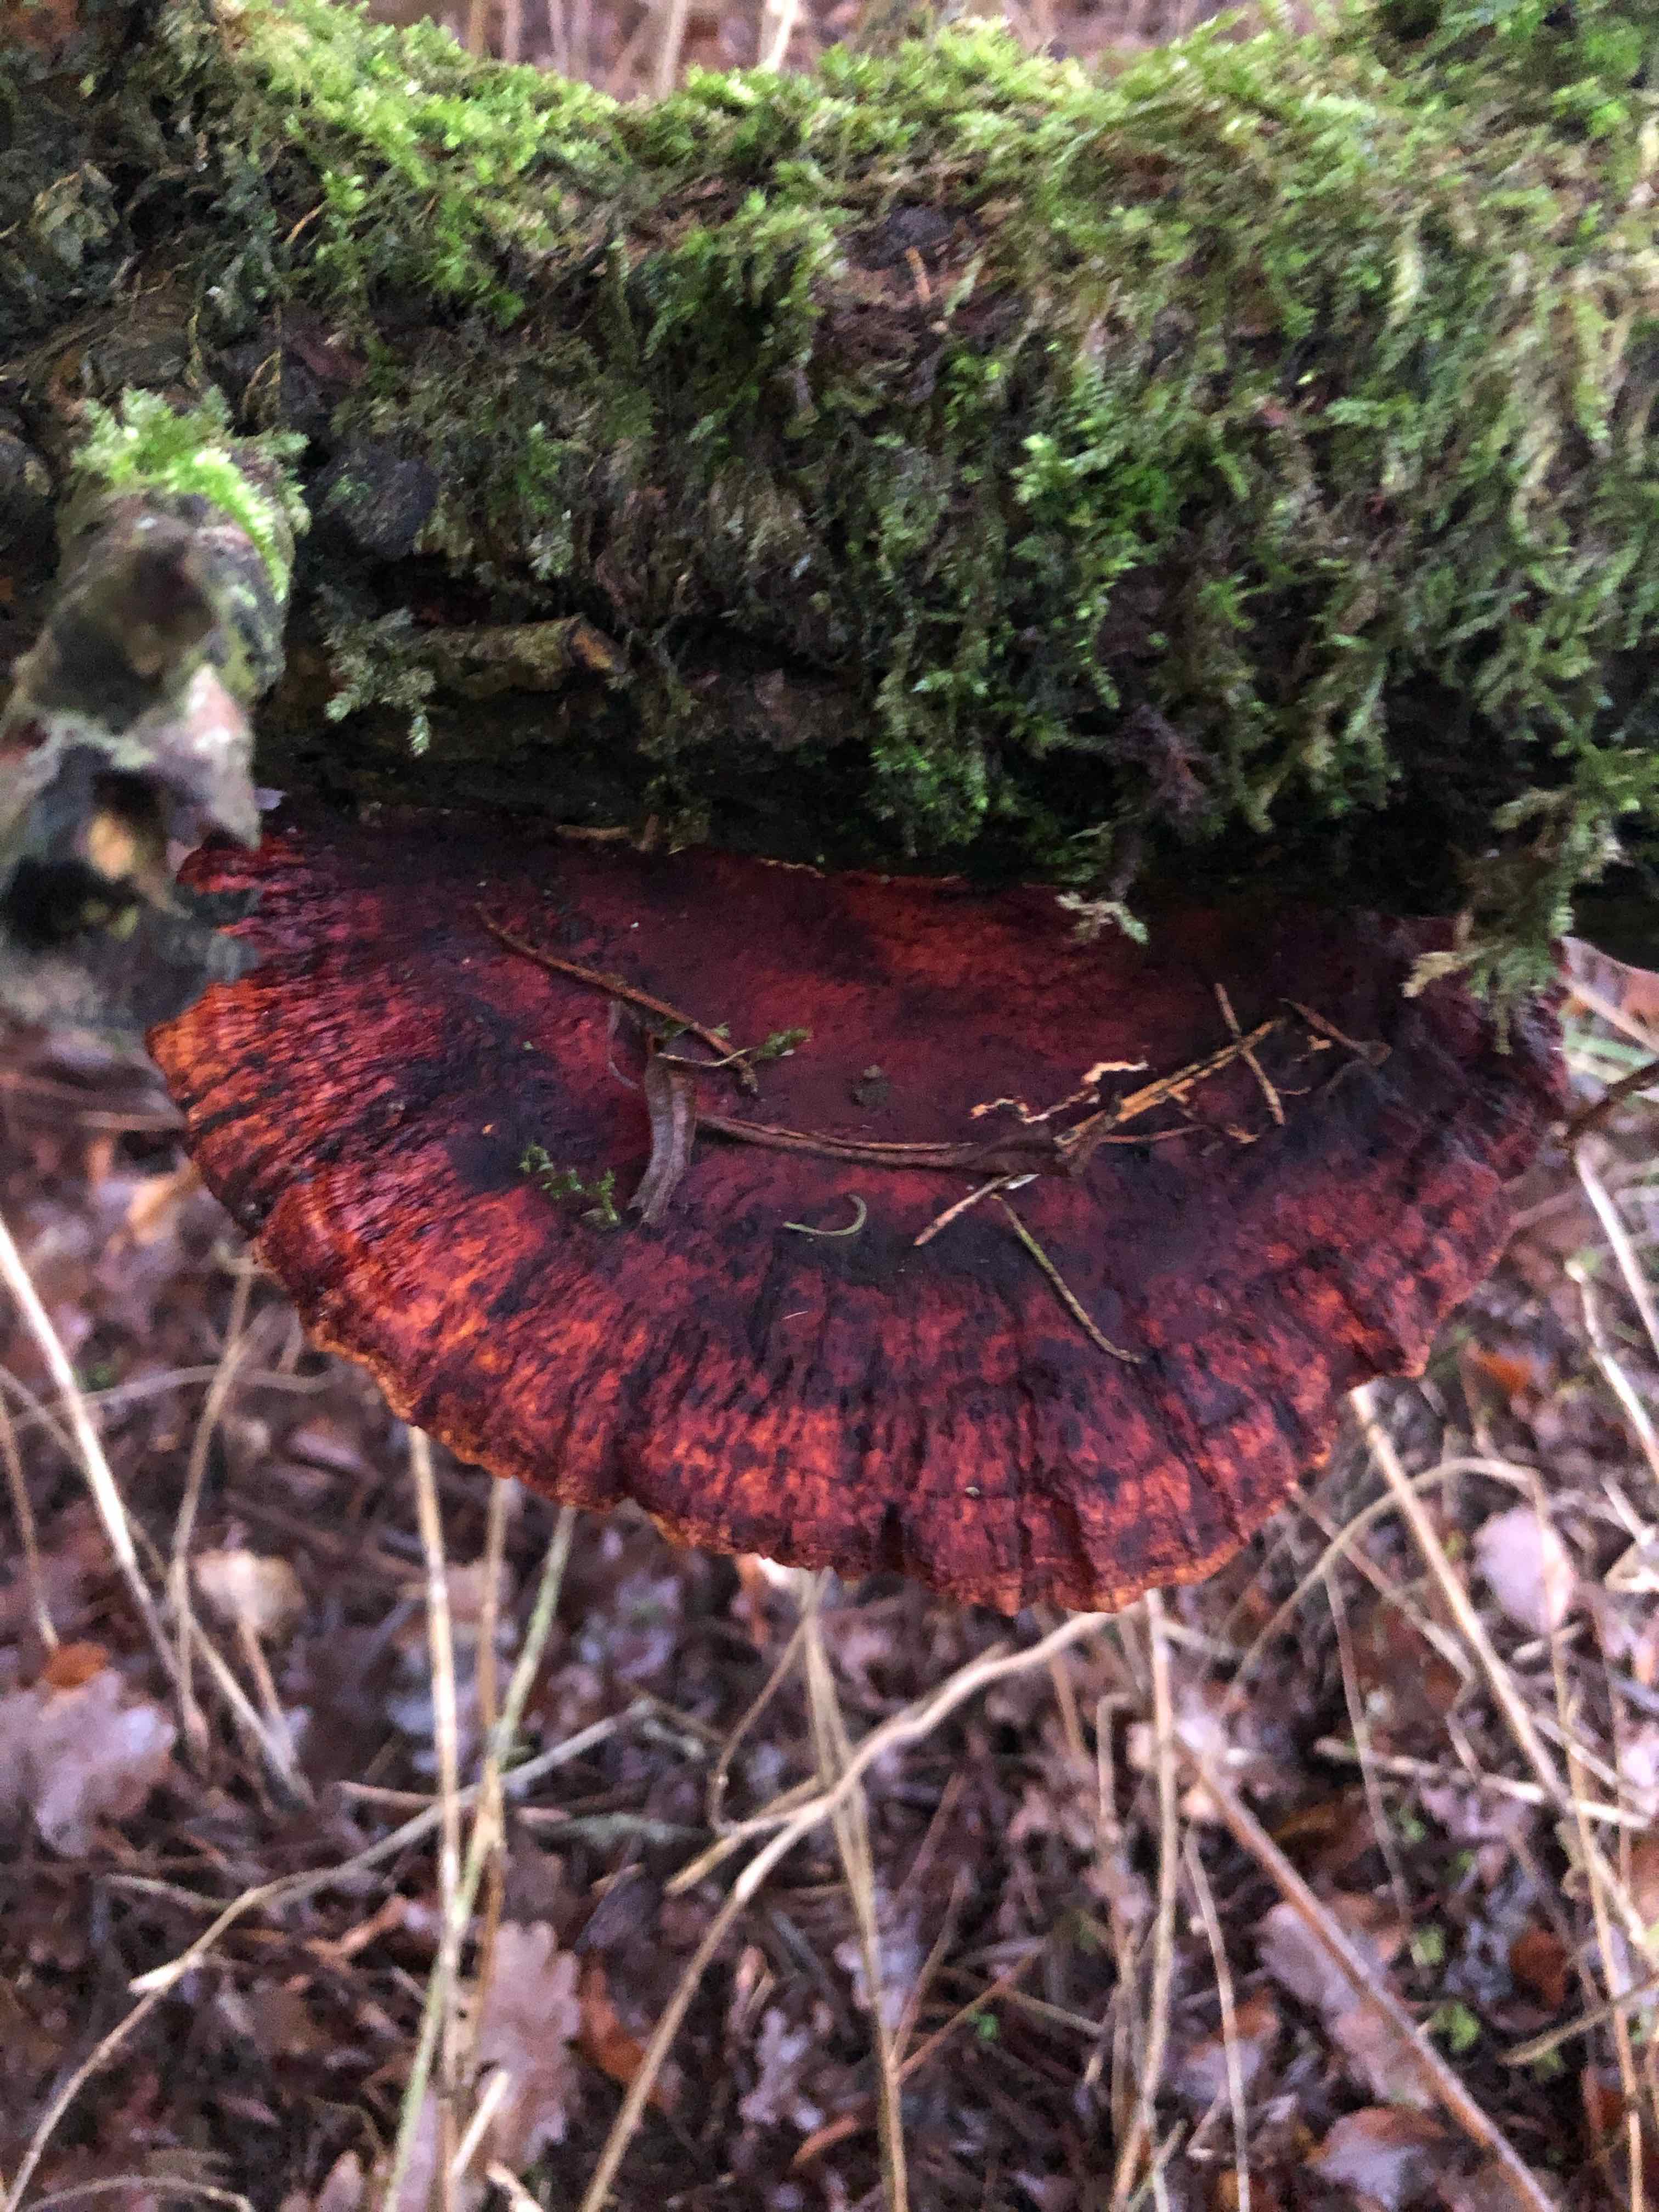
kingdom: Fungi
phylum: Basidiomycota
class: Agaricomycetes
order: Polyporales
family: Polyporaceae
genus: Daedaleopsis
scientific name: Daedaleopsis confragosa
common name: rødmende læderporesvamp
